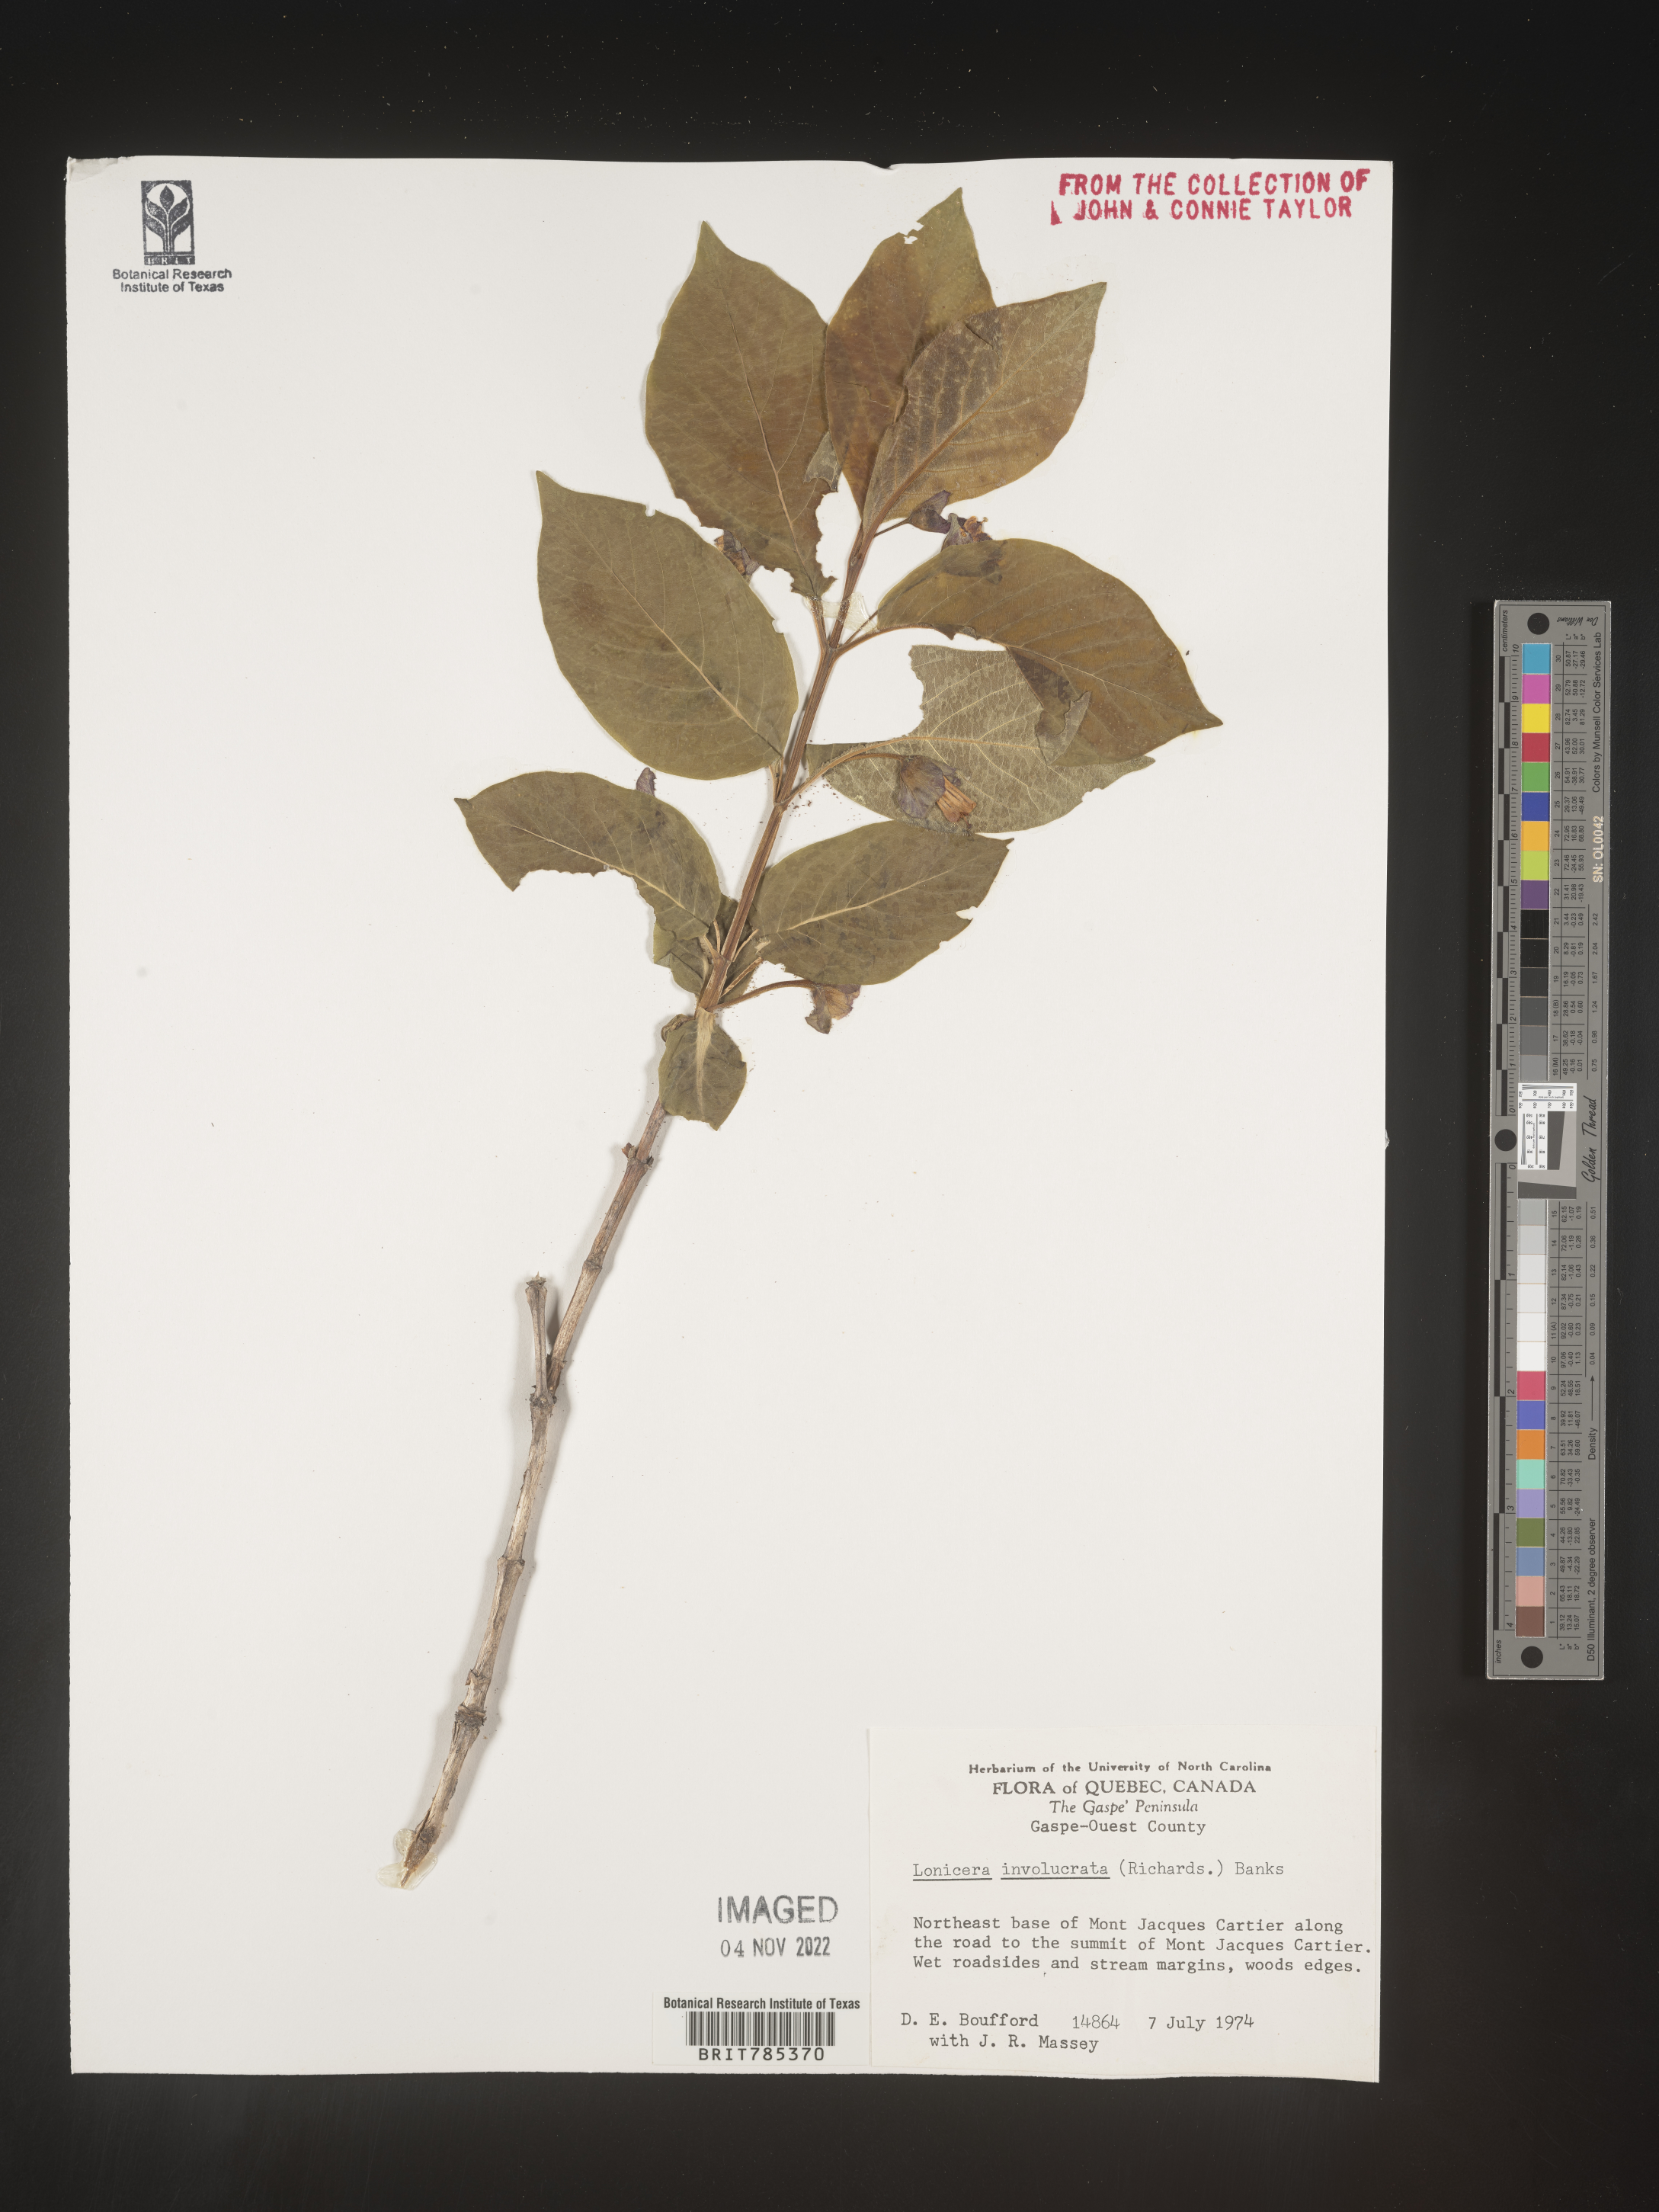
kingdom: Plantae
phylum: Tracheophyta
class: Magnoliopsida
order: Dipsacales
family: Caprifoliaceae
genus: Lonicera
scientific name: Lonicera involucrata
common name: Californian honeysuckle
